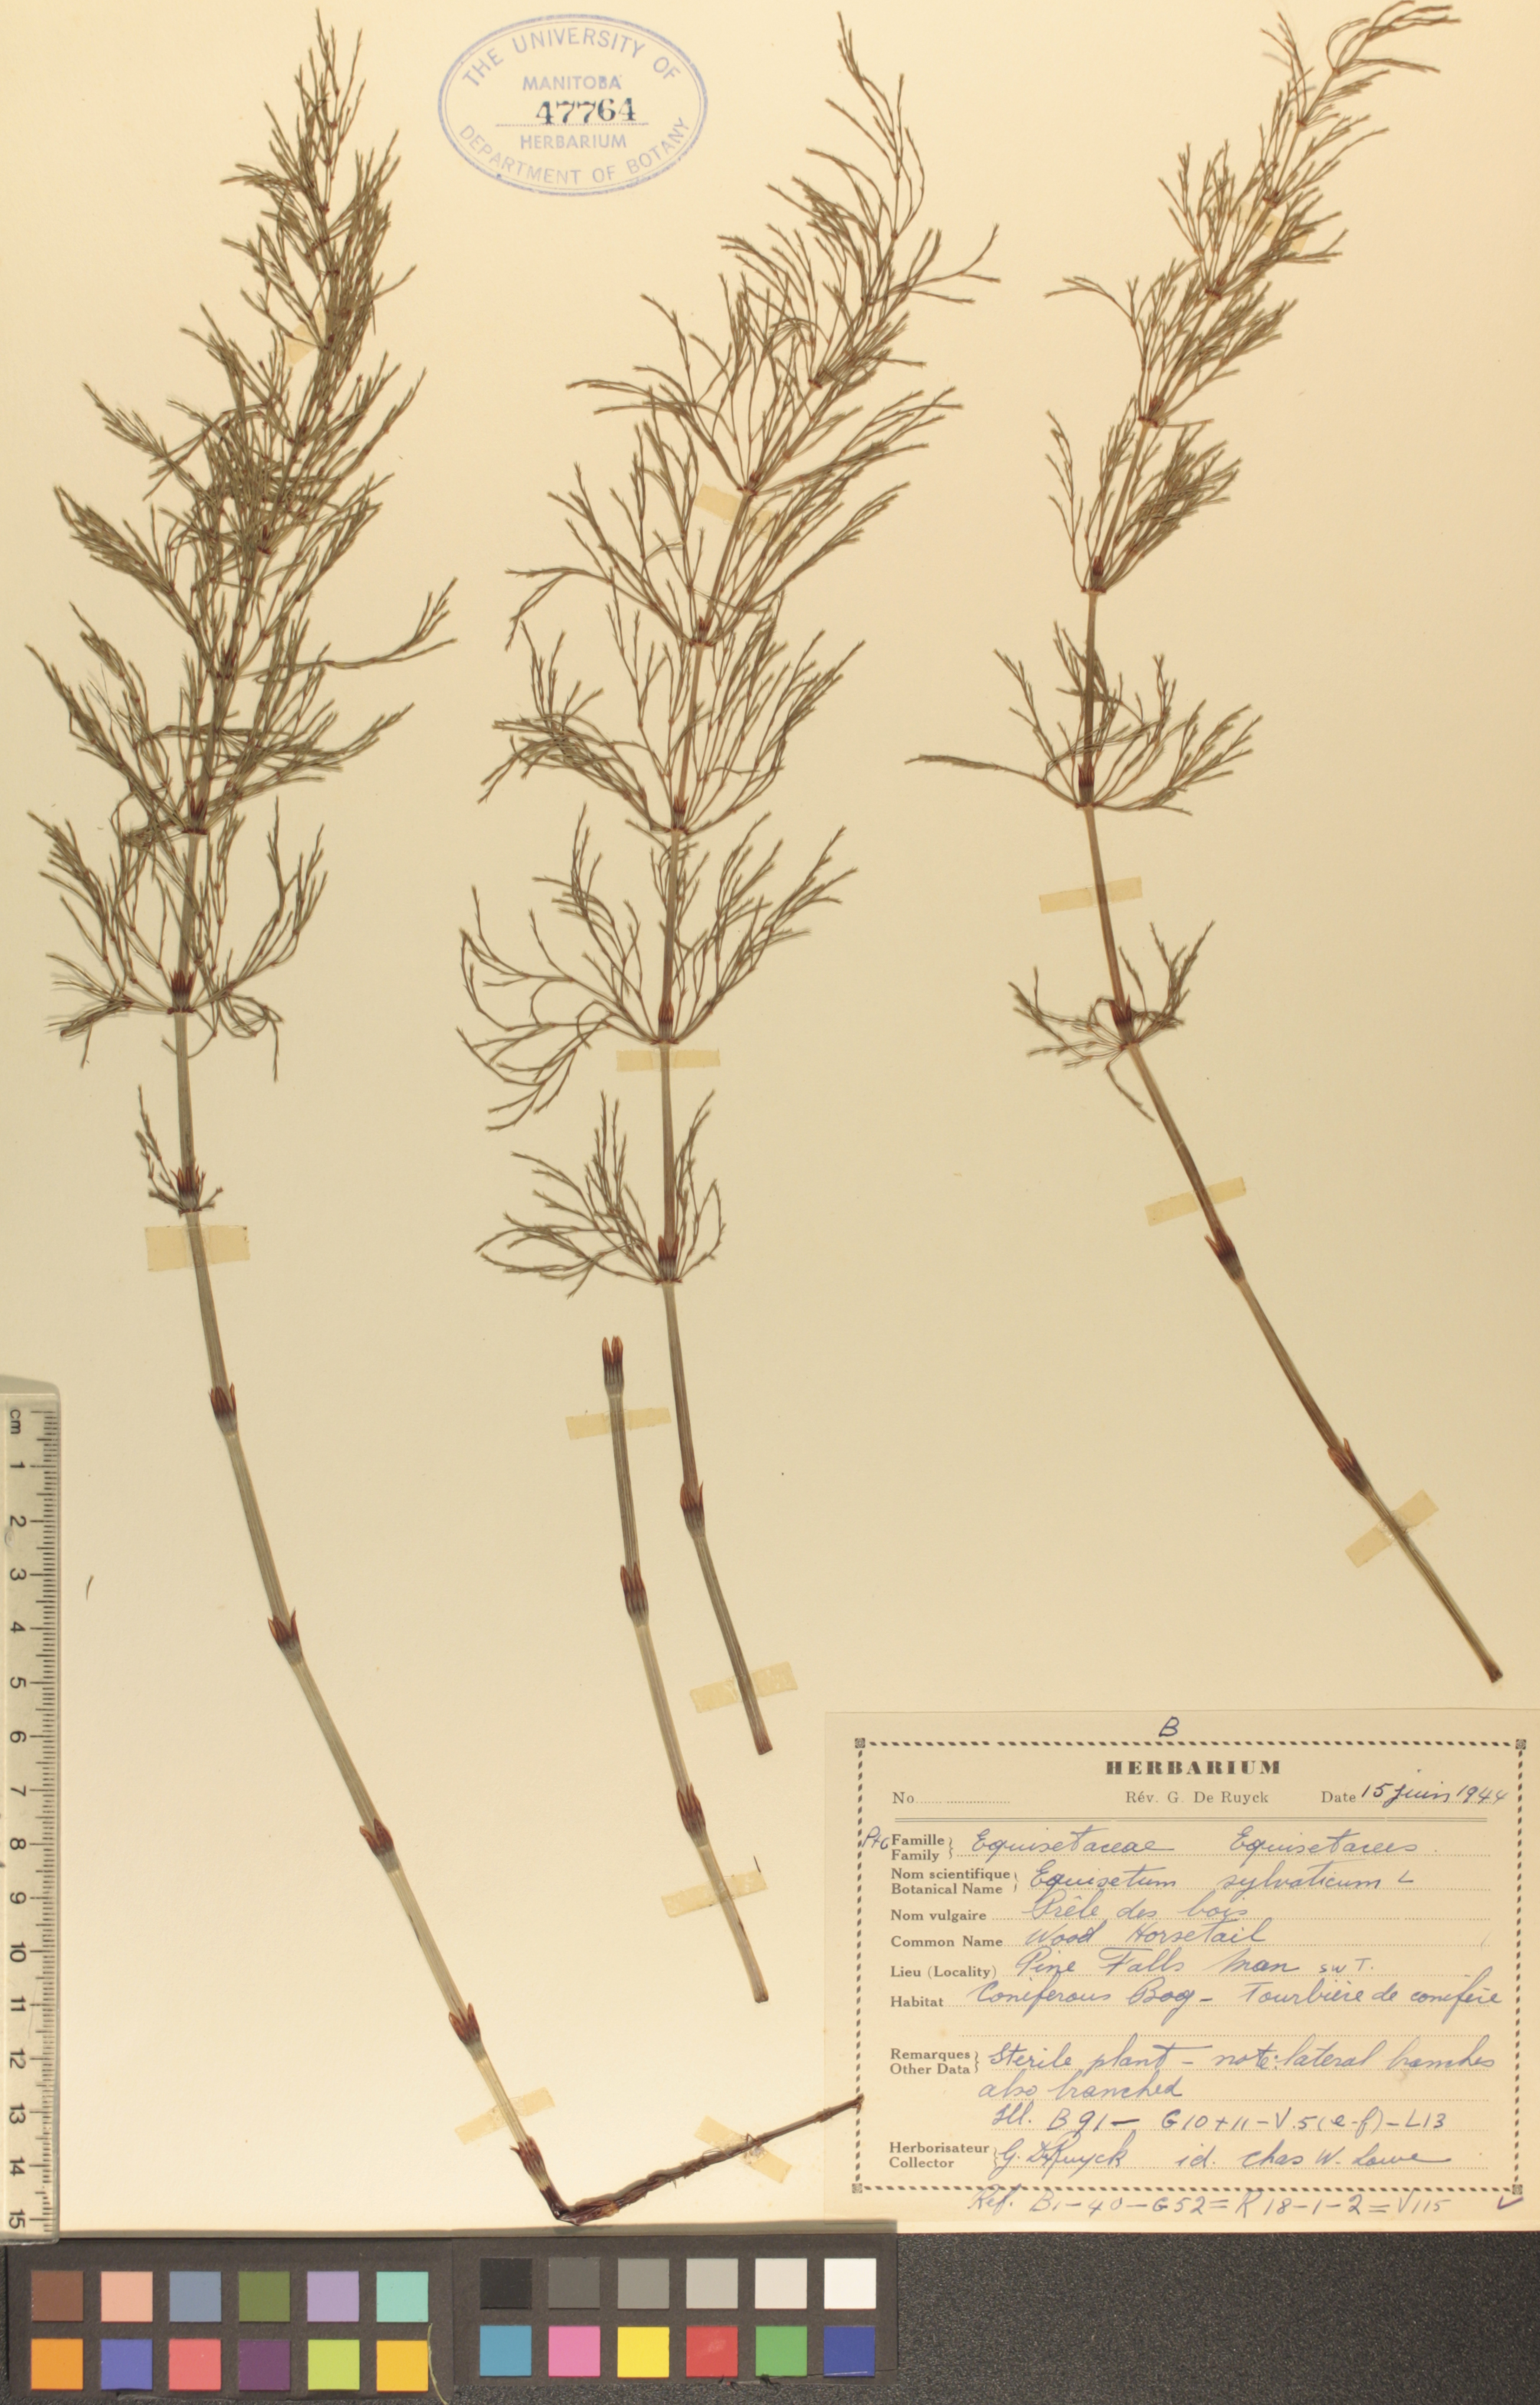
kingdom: Plantae
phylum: Tracheophyta
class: Polypodiopsida
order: Equisetales
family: Equisetaceae
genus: Equisetum
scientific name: Equisetum sylvaticum
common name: Wood horsetail
